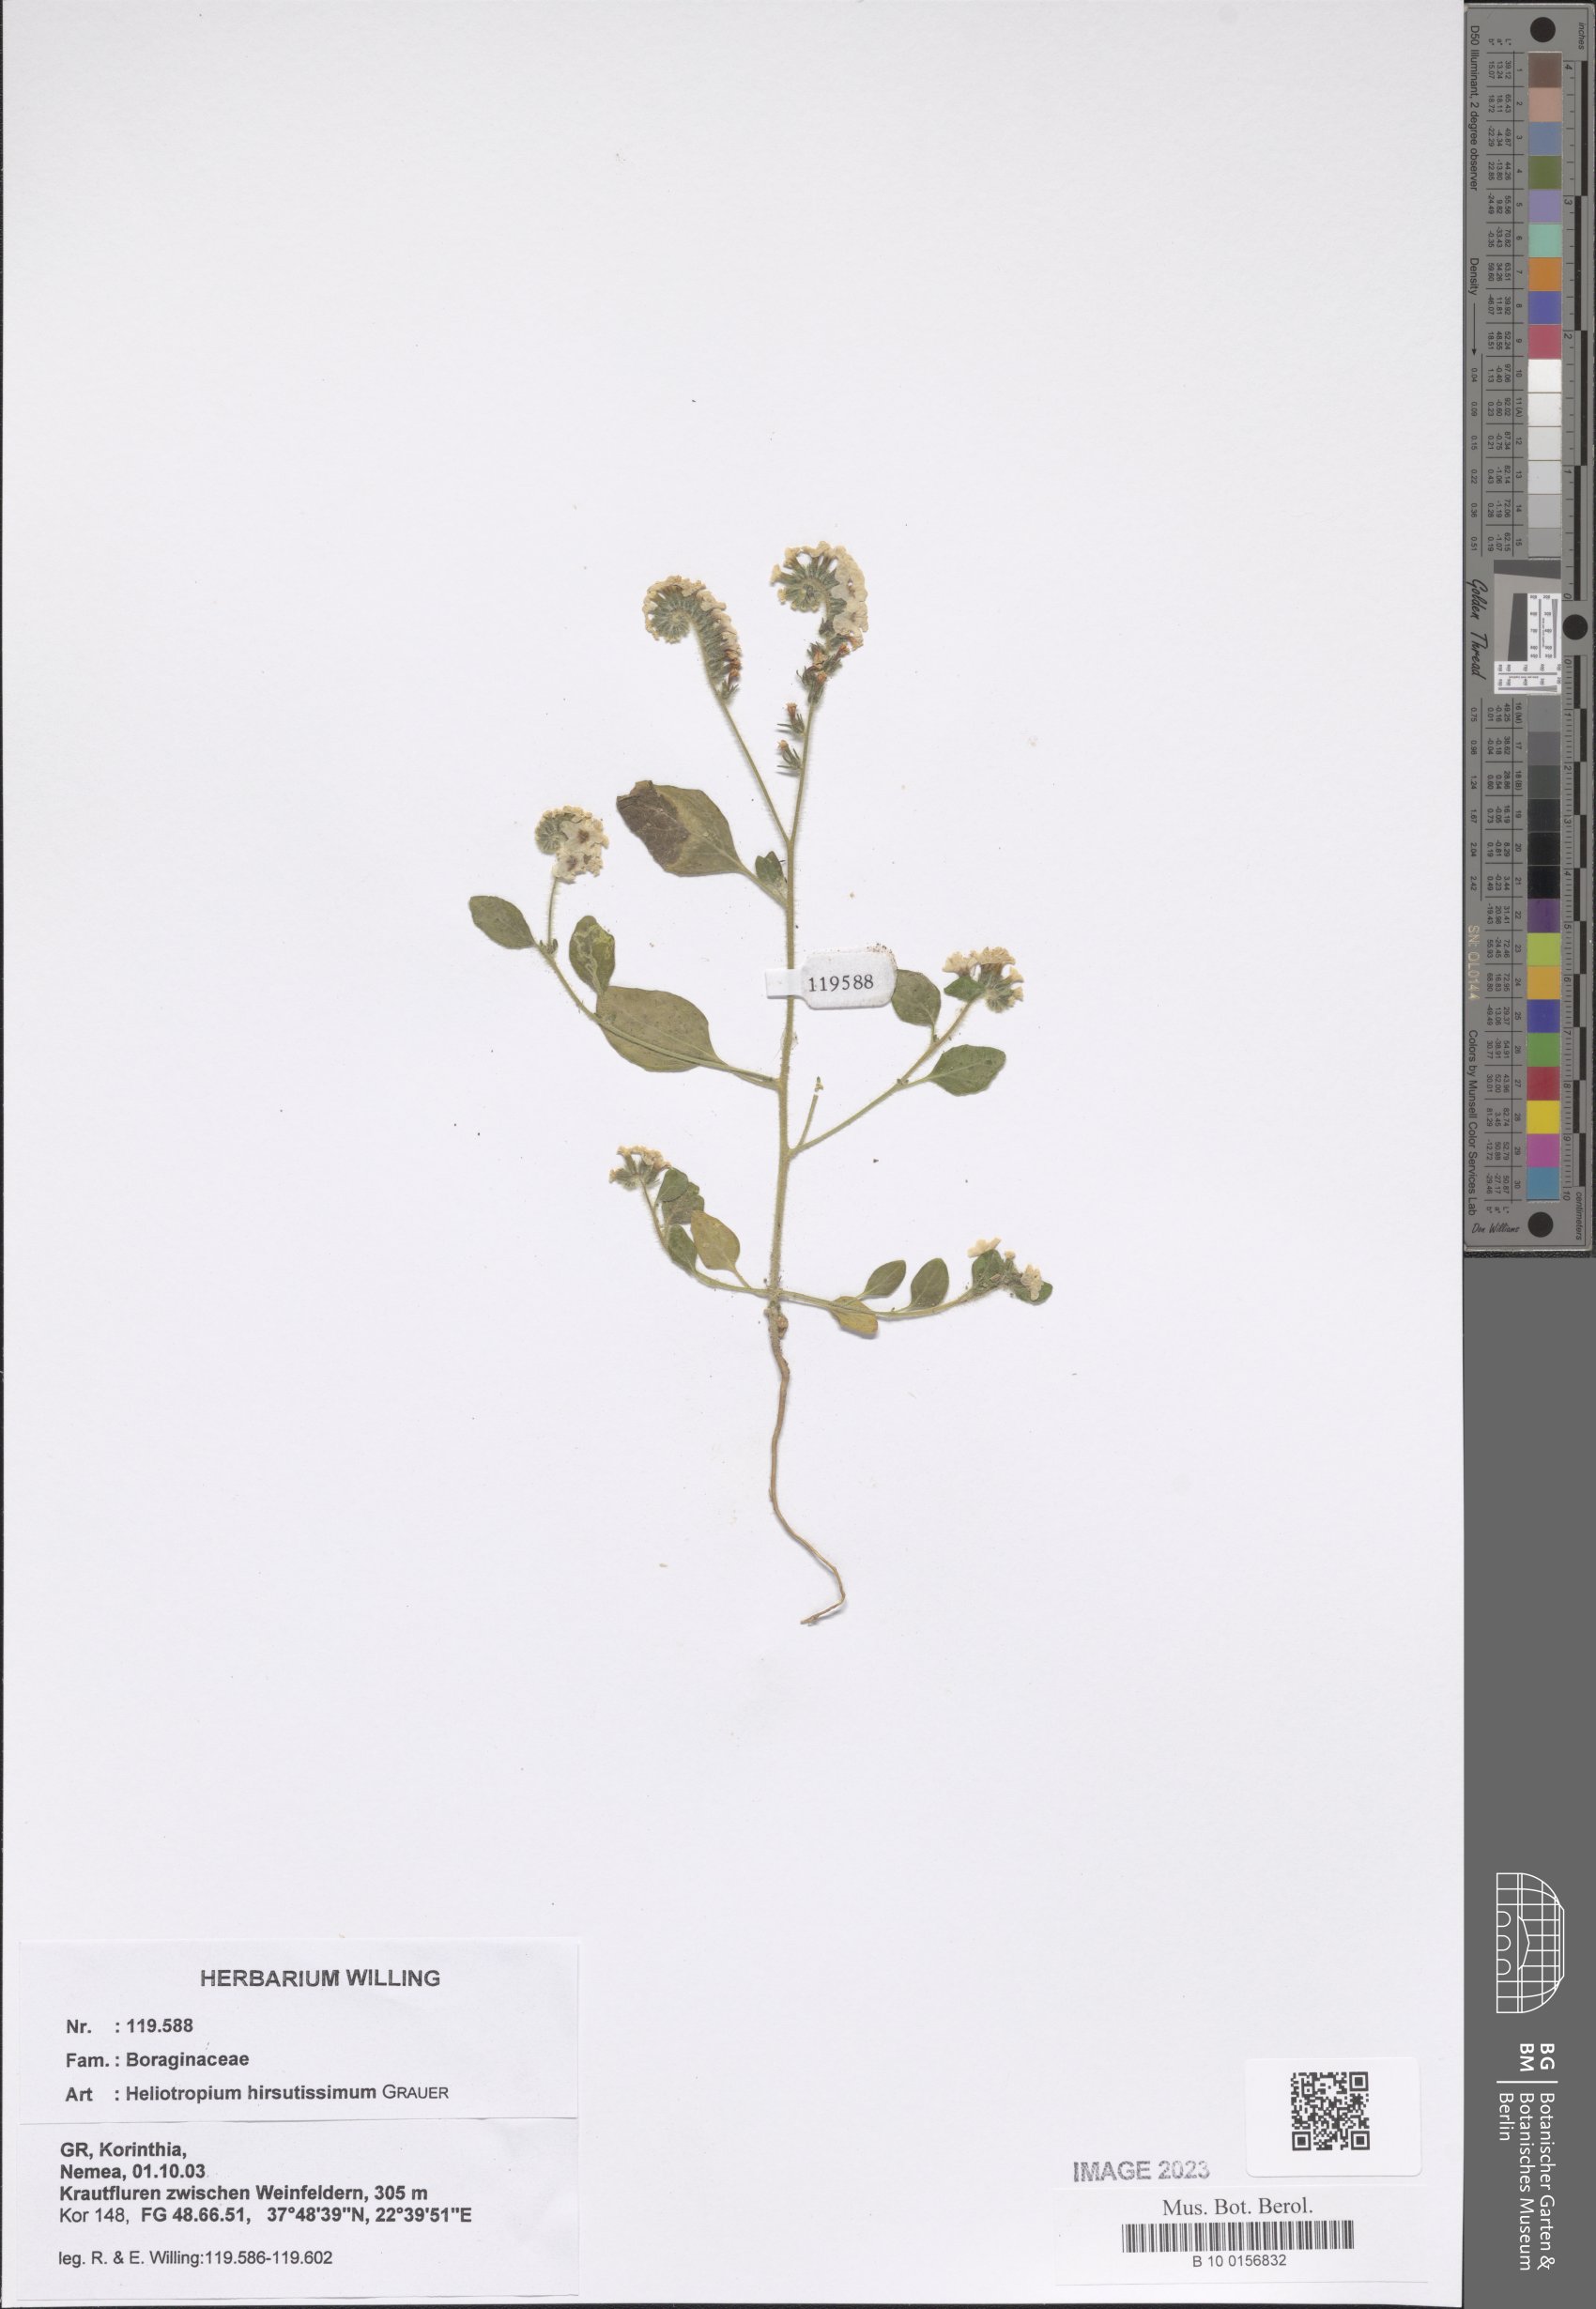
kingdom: Plantae
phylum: Tracheophyta
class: Magnoliopsida
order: Boraginales
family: Heliotropiaceae
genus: Heliotropium
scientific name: Heliotropium hirsutissimum
